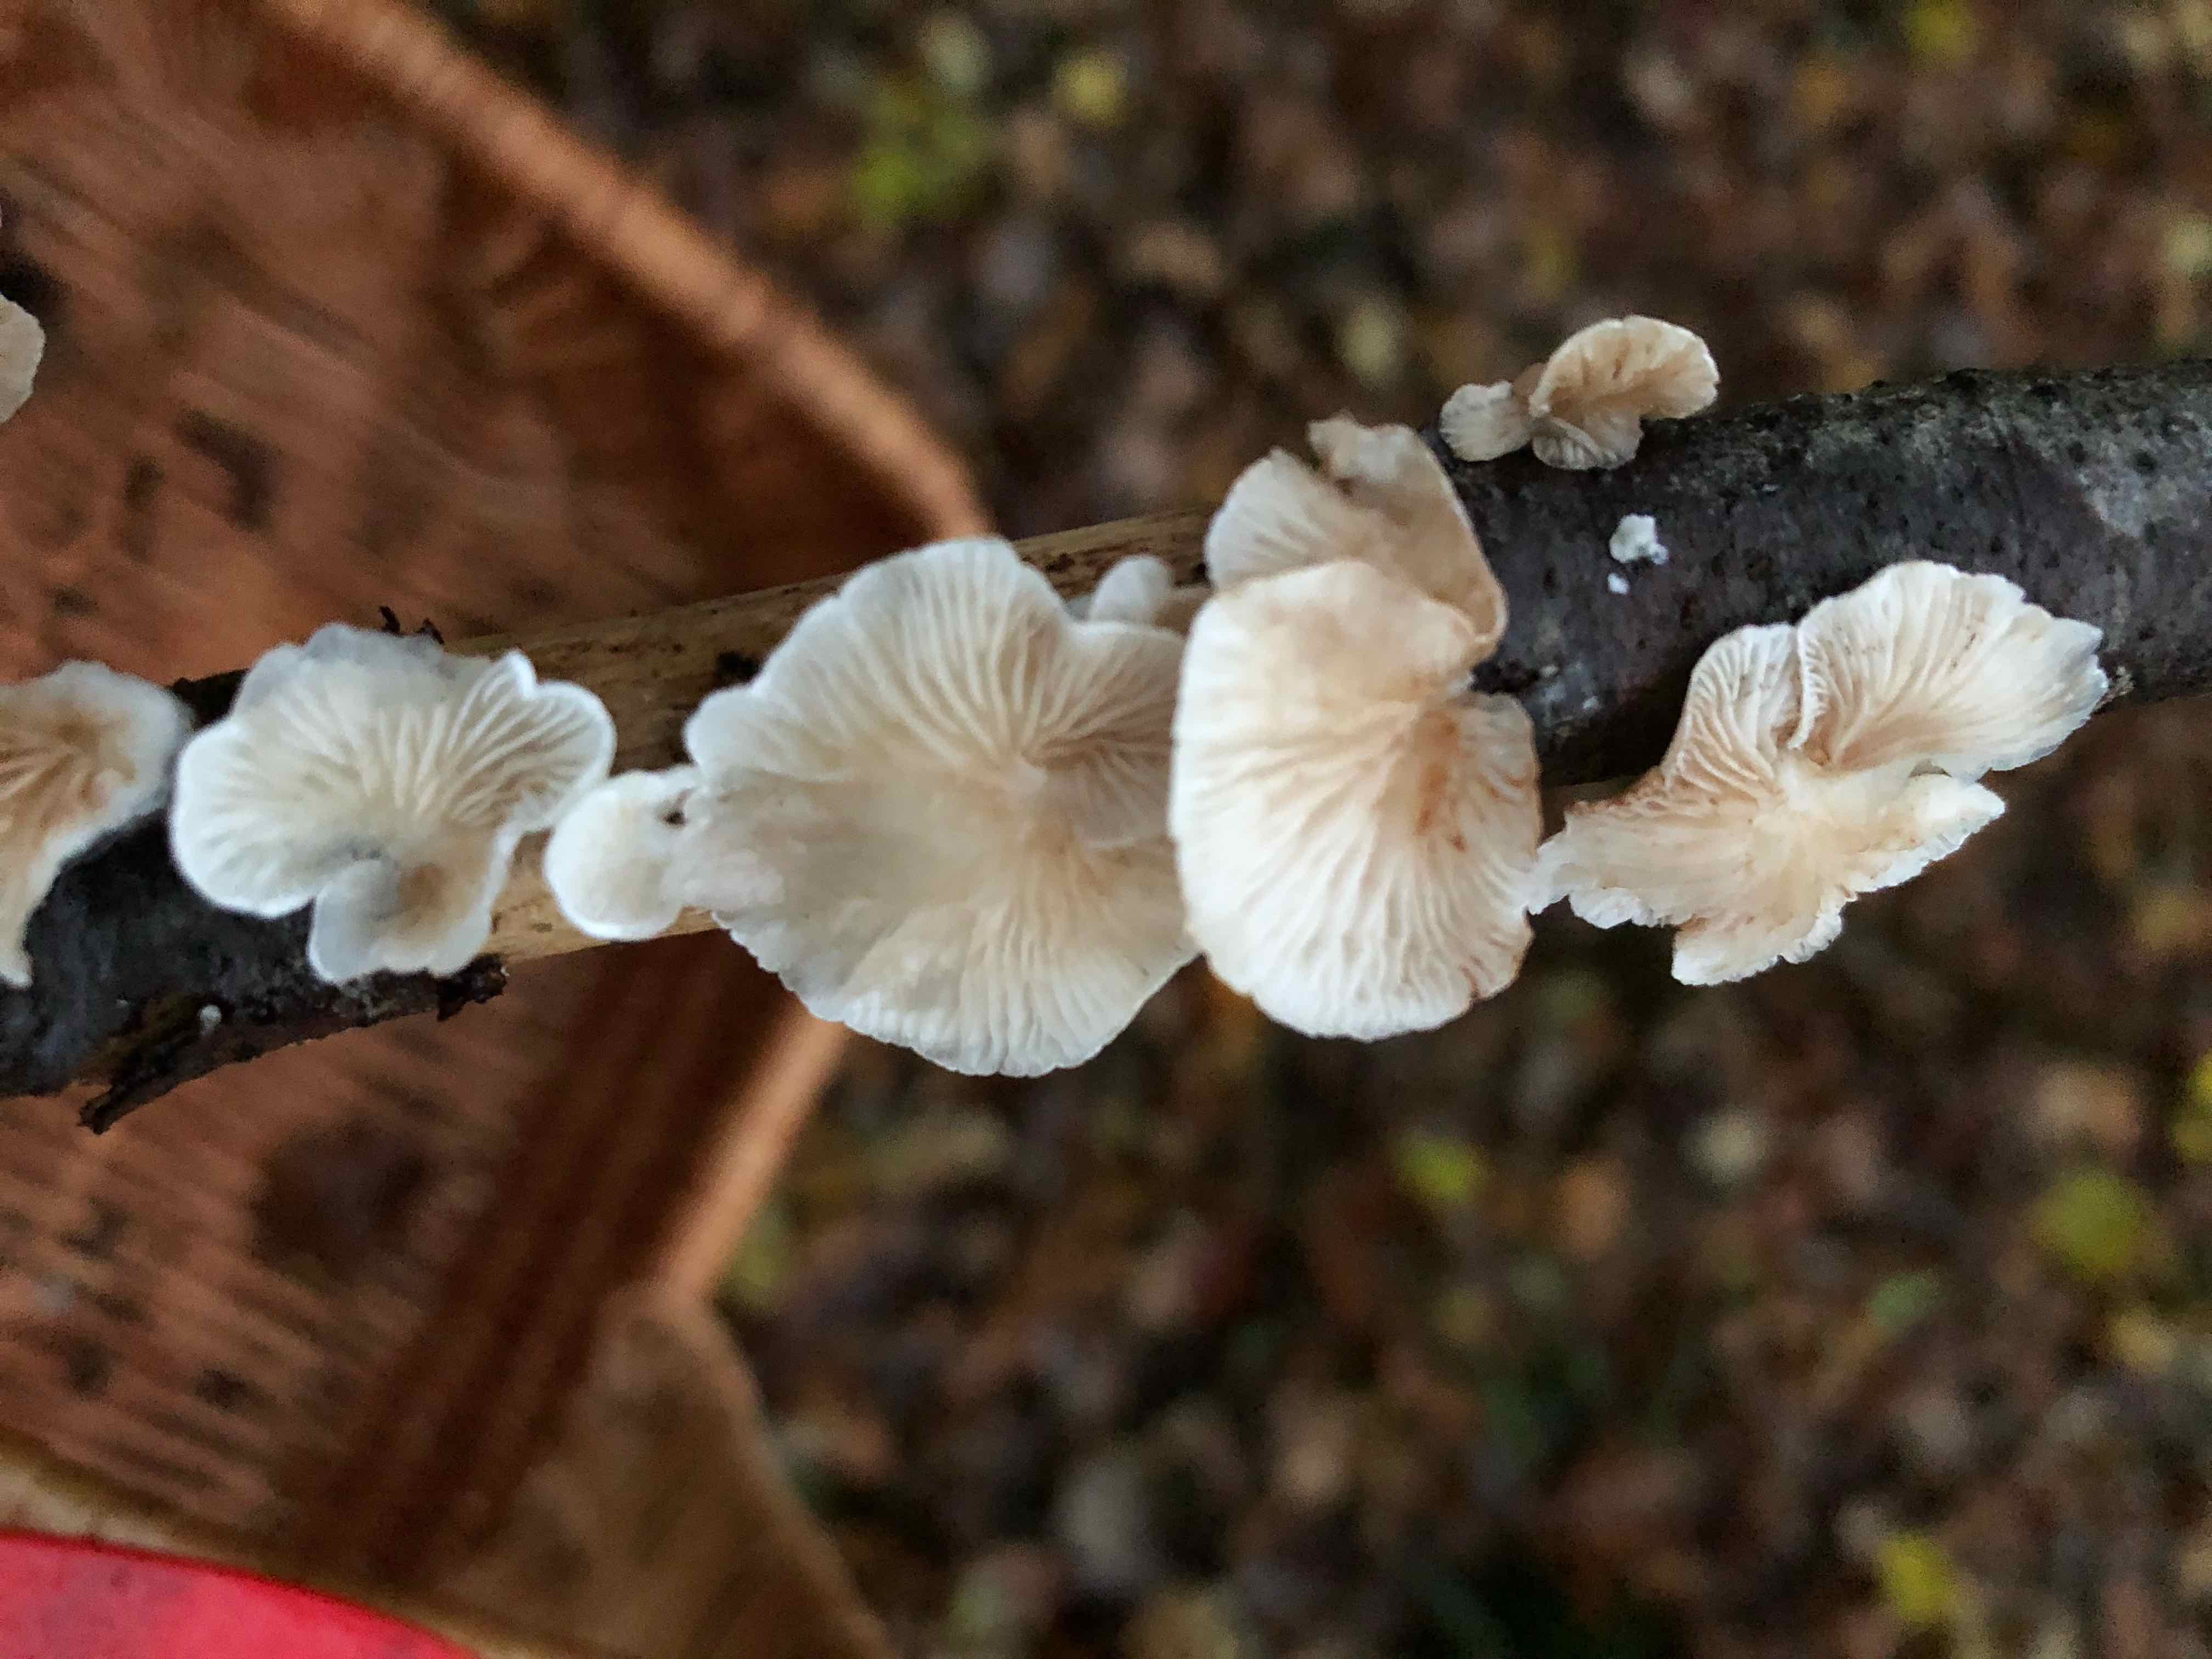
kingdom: Fungi
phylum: Basidiomycota
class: Agaricomycetes
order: Agaricales
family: Crepidotaceae
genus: Crepidotus
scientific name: Crepidotus
